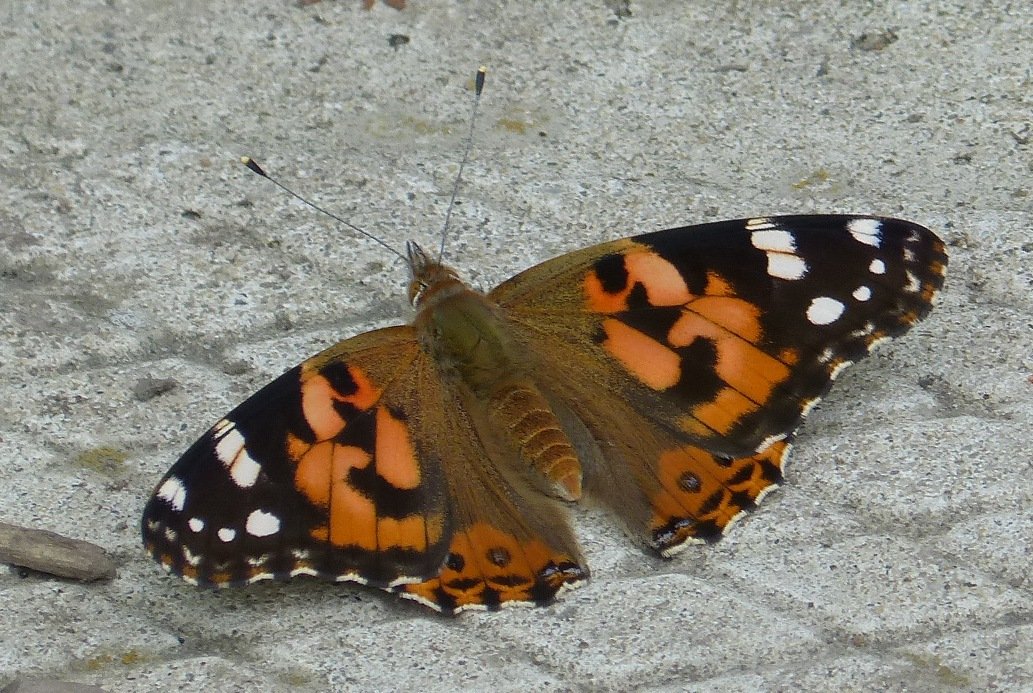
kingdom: Animalia
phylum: Arthropoda
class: Insecta
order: Lepidoptera
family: Nymphalidae
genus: Vanessa
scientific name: Vanessa cardui
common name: Painted Lady
